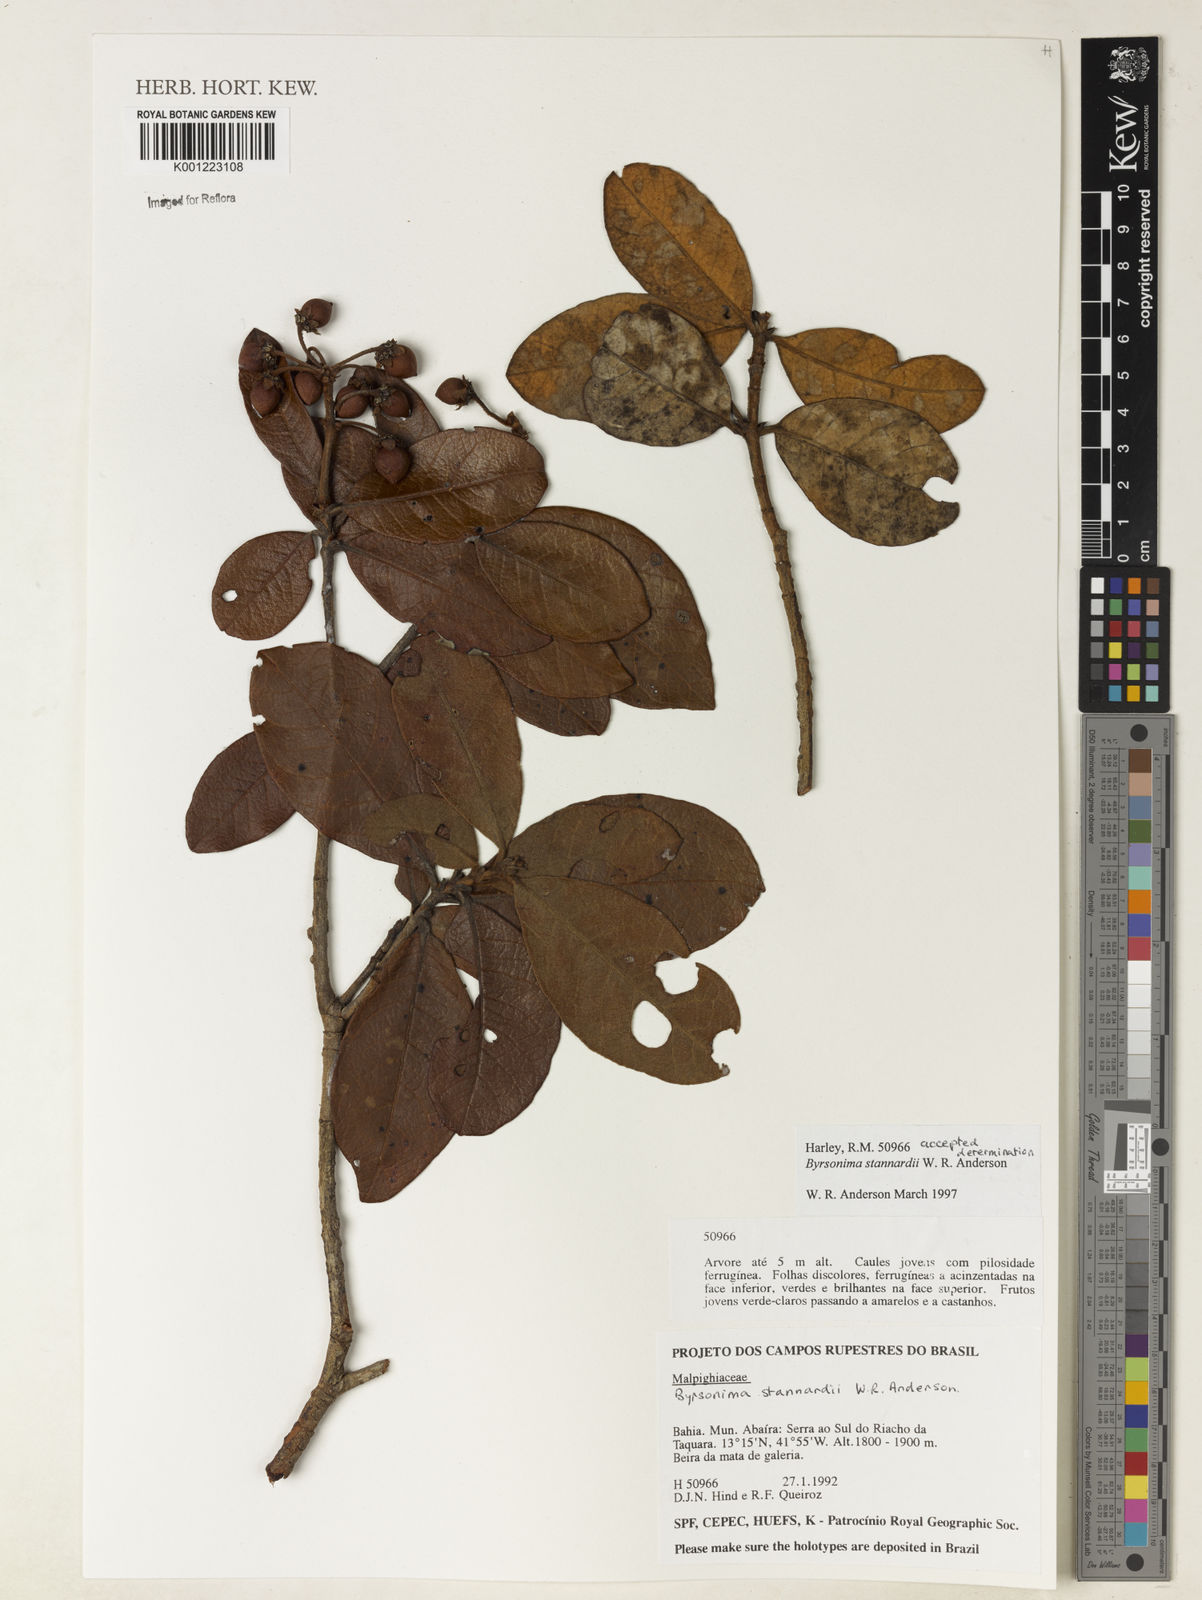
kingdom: Plantae
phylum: Tracheophyta
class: Magnoliopsida
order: Malpighiales
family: Malpighiaceae
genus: Byrsonima
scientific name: Byrsonima stannardii
